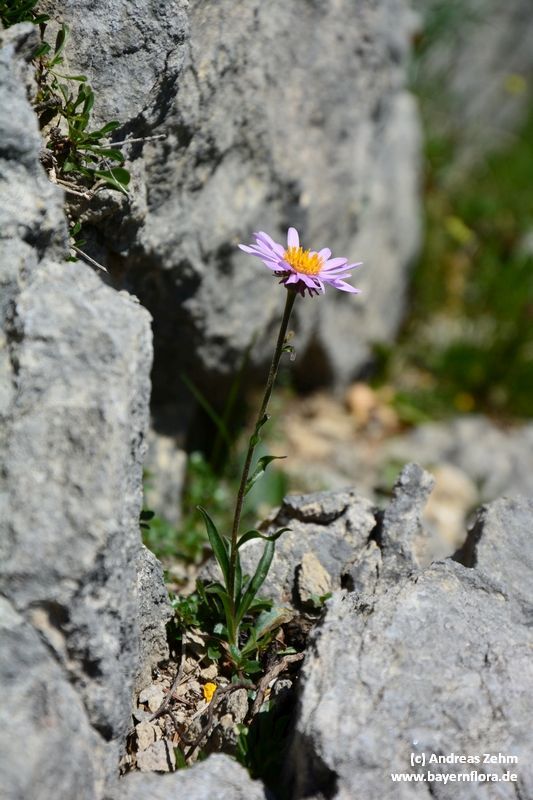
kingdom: Plantae
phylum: Tracheophyta
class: Magnoliopsida
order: Asterales
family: Asteraceae
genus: Aster
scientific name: Aster alpinus
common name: Alpine aster
